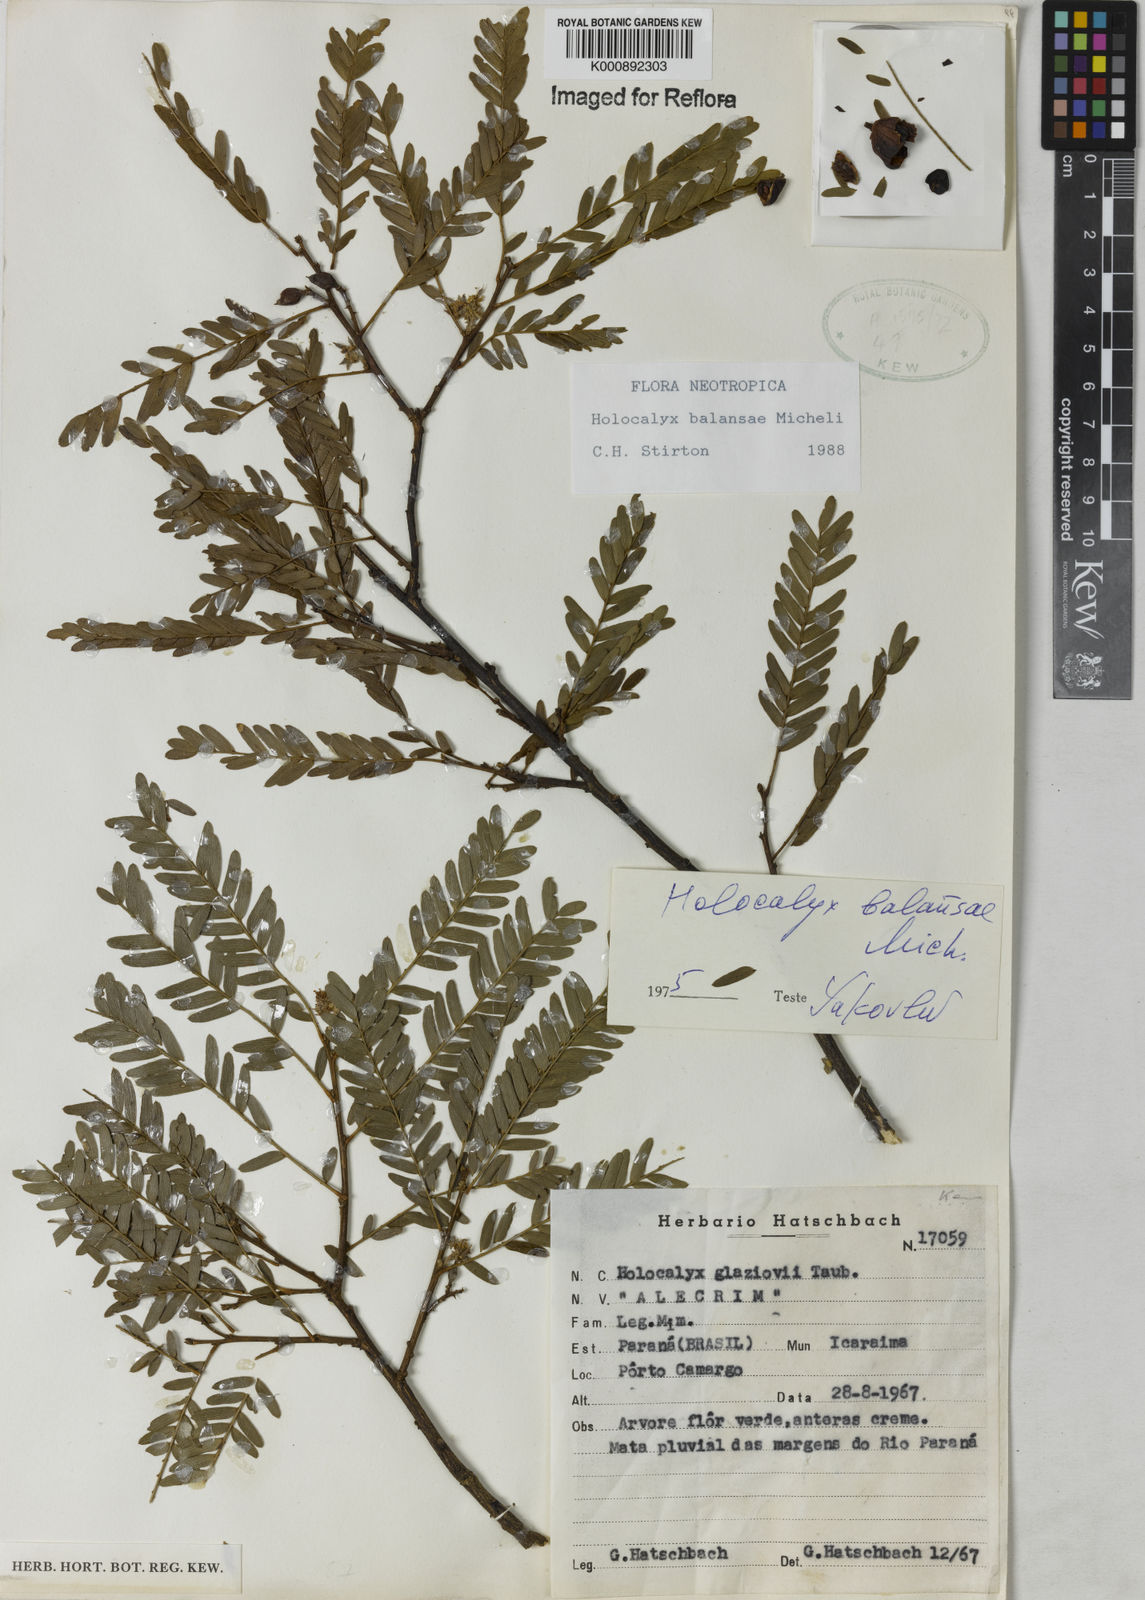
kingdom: Plantae
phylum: Tracheophyta
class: Magnoliopsida
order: Fabales
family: Fabaceae
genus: Holocalyx
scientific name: Holocalyx
